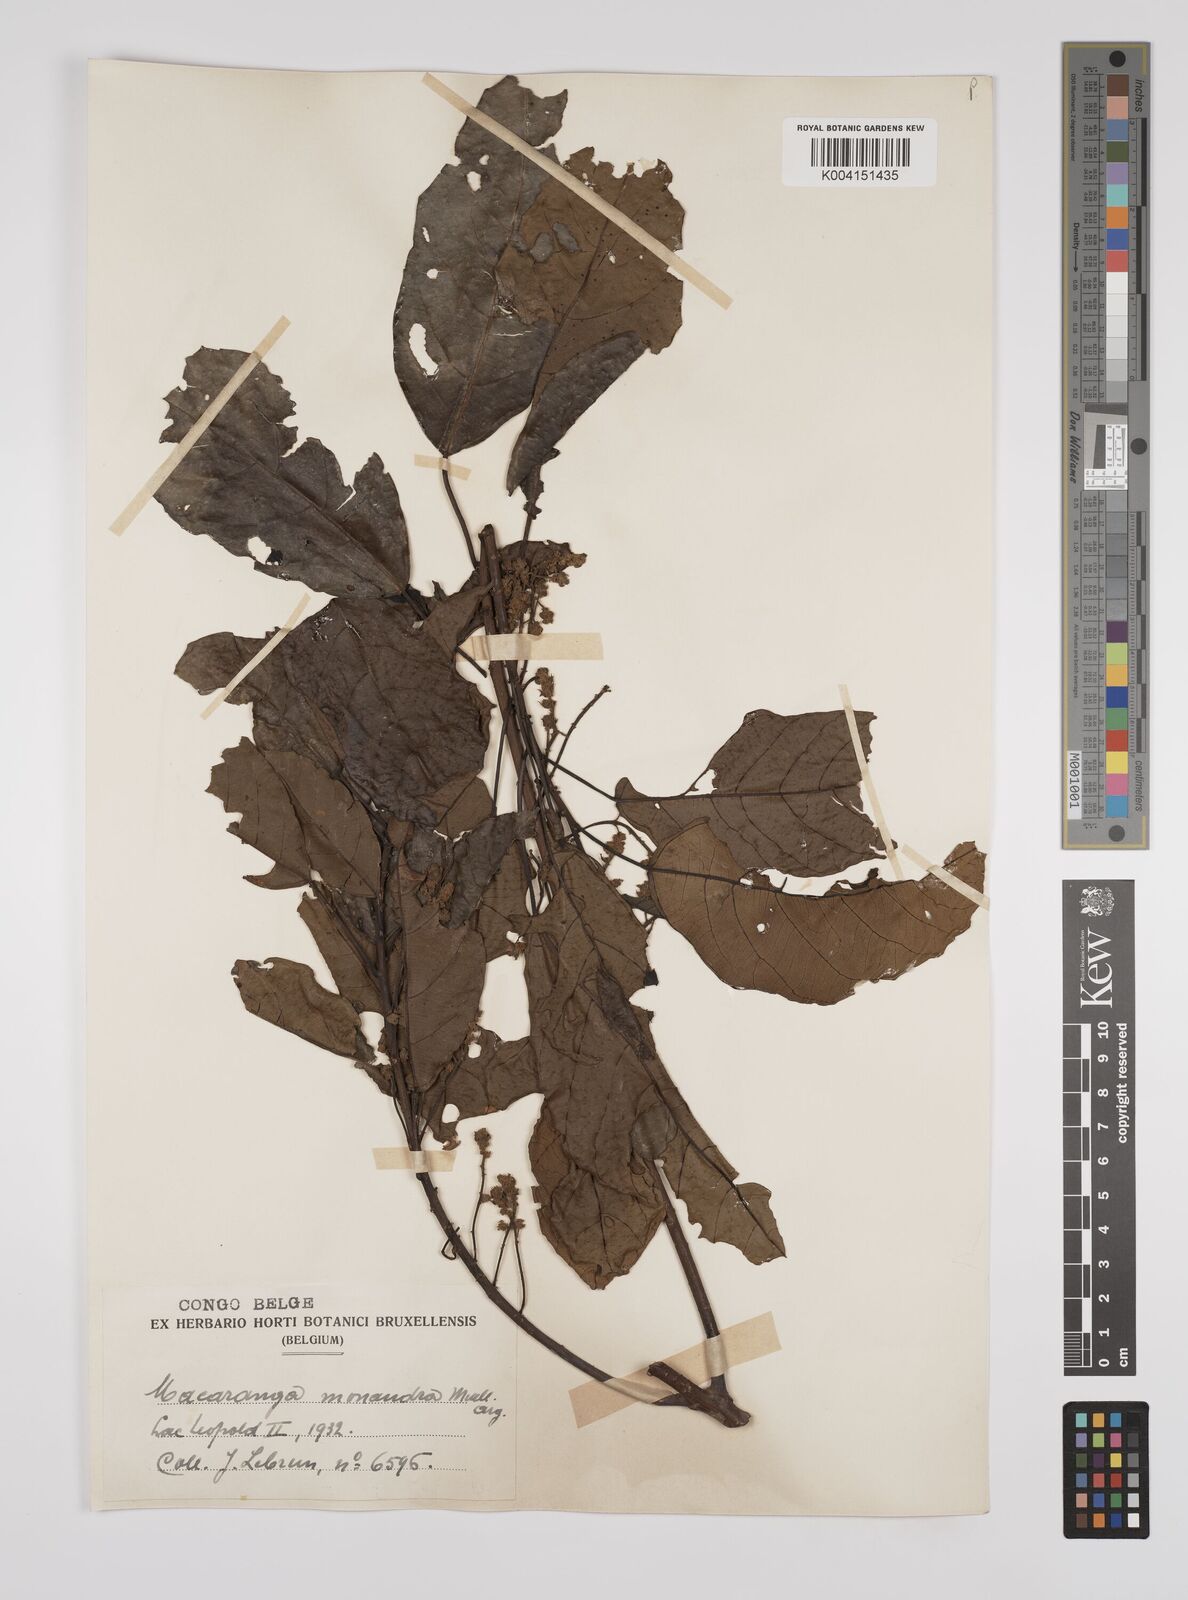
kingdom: Plantae
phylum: Tracheophyta
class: Magnoliopsida
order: Malpighiales
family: Euphorbiaceae
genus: Macaranga
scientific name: Macaranga monandra
